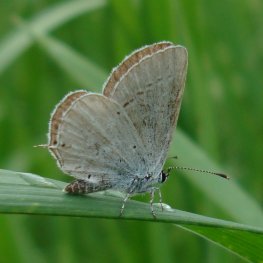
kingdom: Animalia
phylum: Arthropoda
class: Insecta
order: Lepidoptera
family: Lycaenidae
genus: Elkalyce
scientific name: Elkalyce amyntula
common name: Western Tailed-Blue
